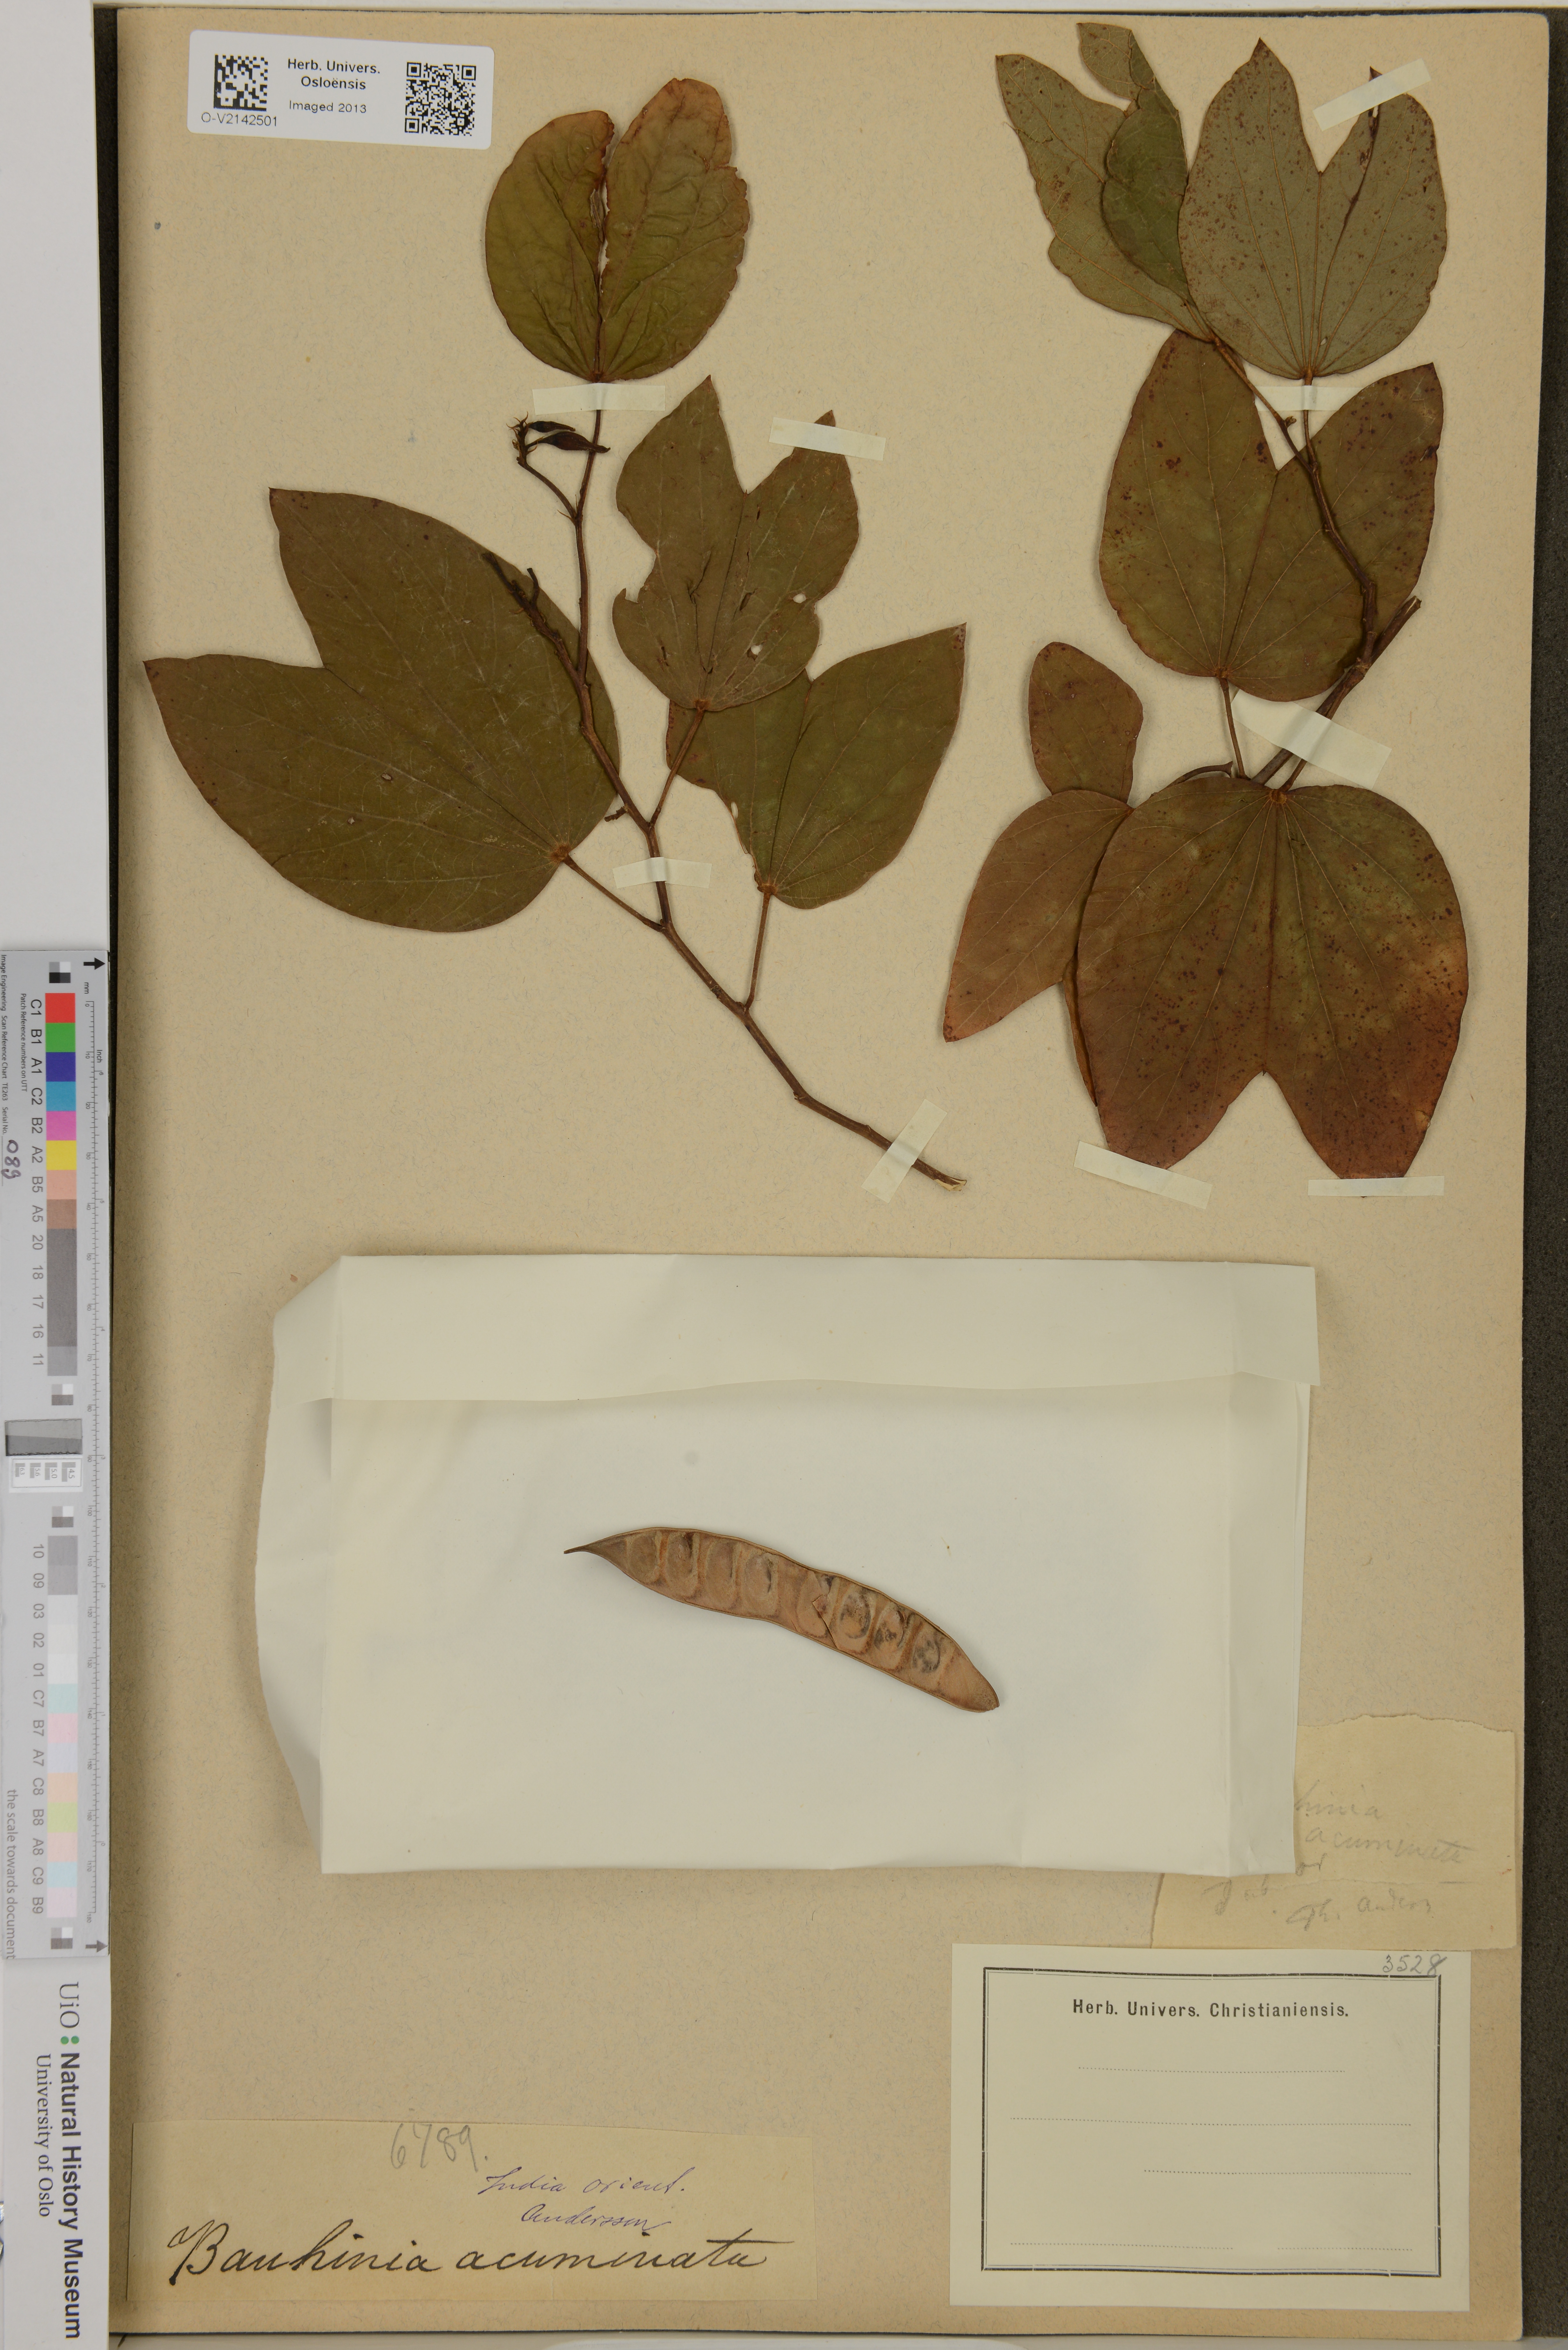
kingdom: Plantae
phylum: Tracheophyta
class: Magnoliopsida
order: Fabales
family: Fabaceae
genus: Bauhinia
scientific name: Bauhinia acuminata
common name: Dwarf white bauhinia
